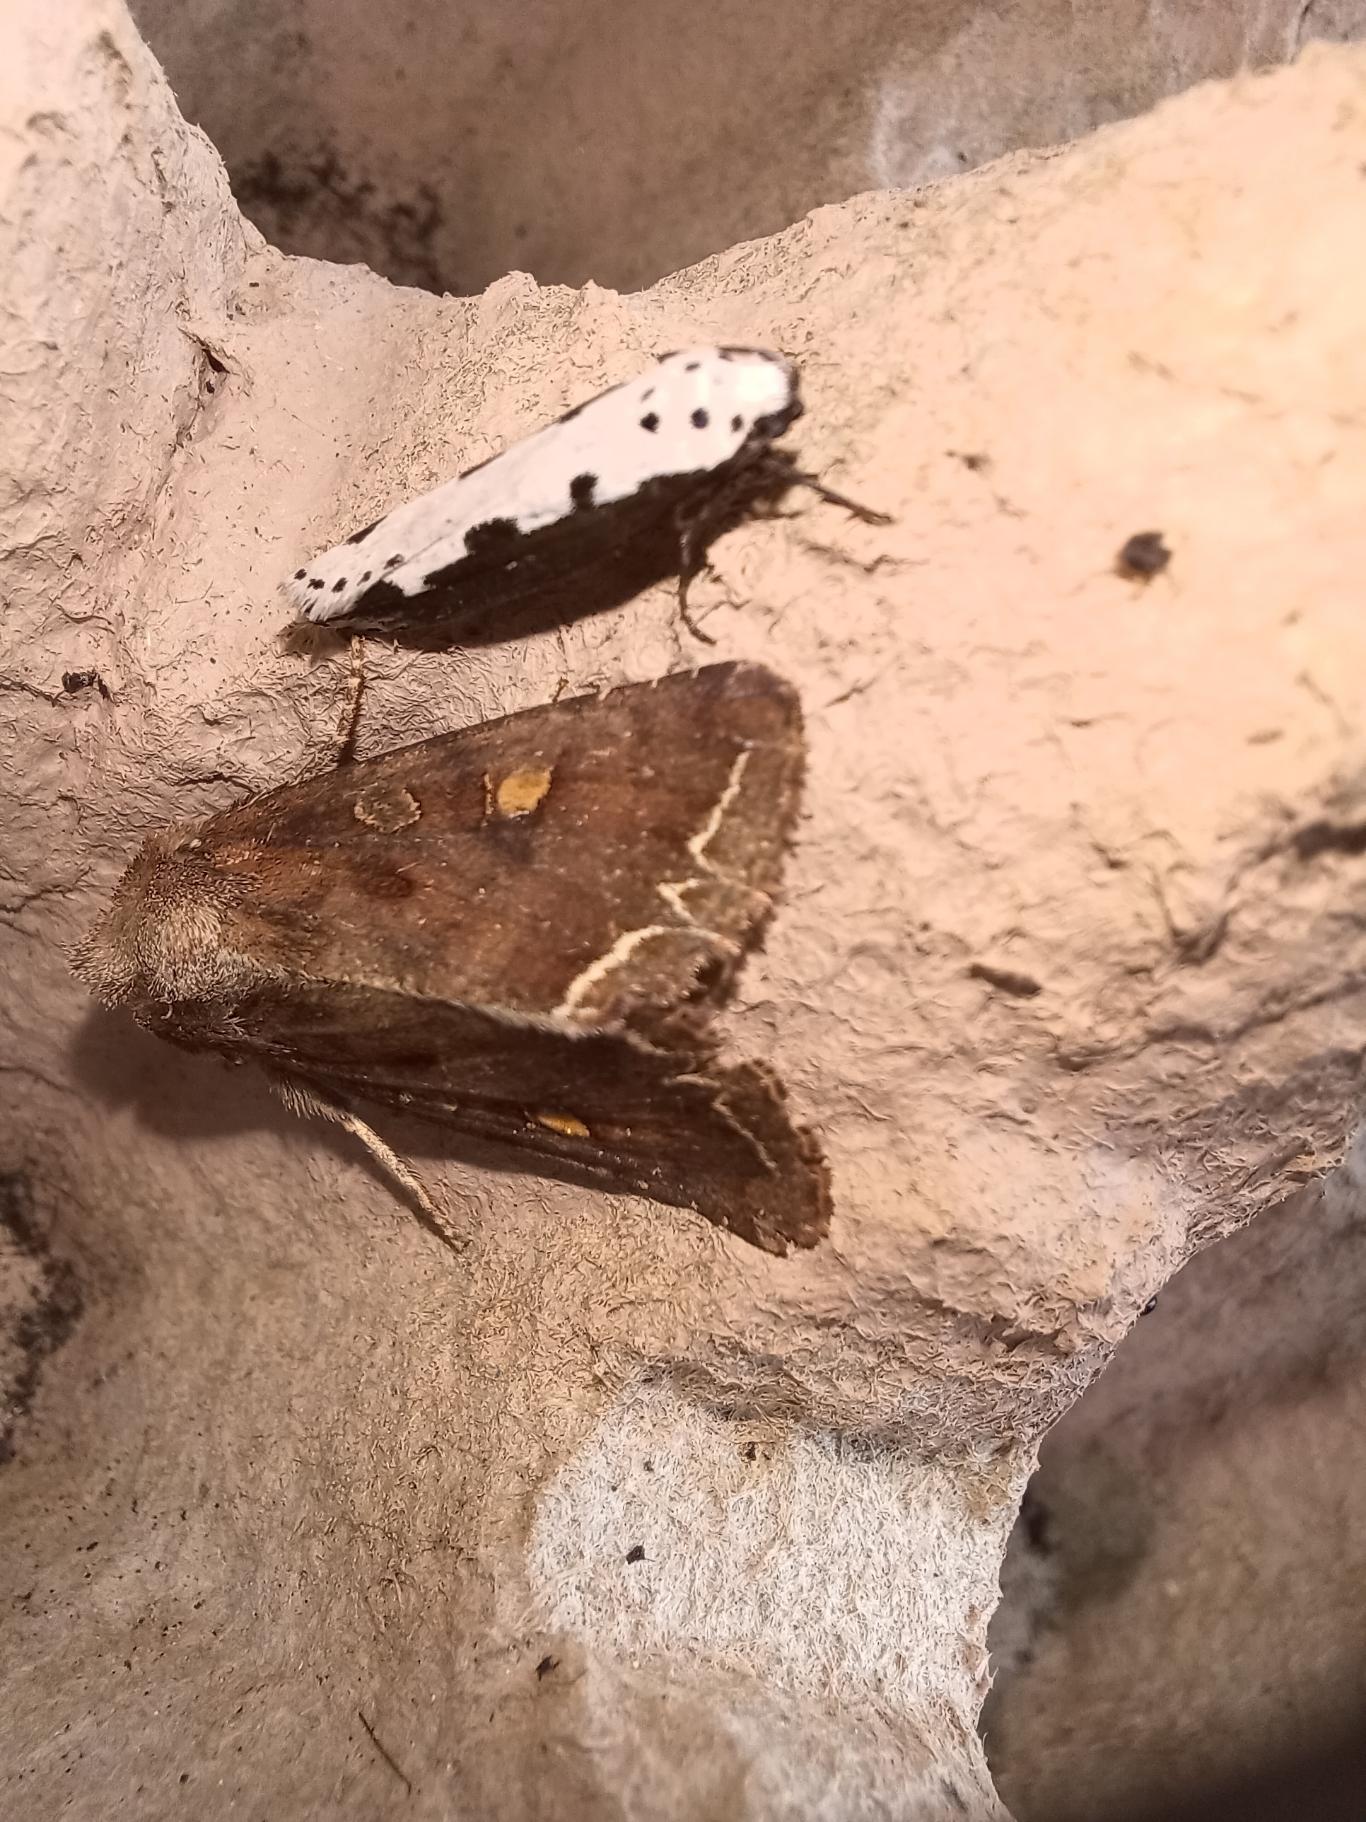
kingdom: Animalia
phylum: Arthropoda
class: Insecta
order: Lepidoptera
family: Ethmiidae
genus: Ethmia
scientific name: Ethmia bipunctella
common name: Slangehovedmøl
